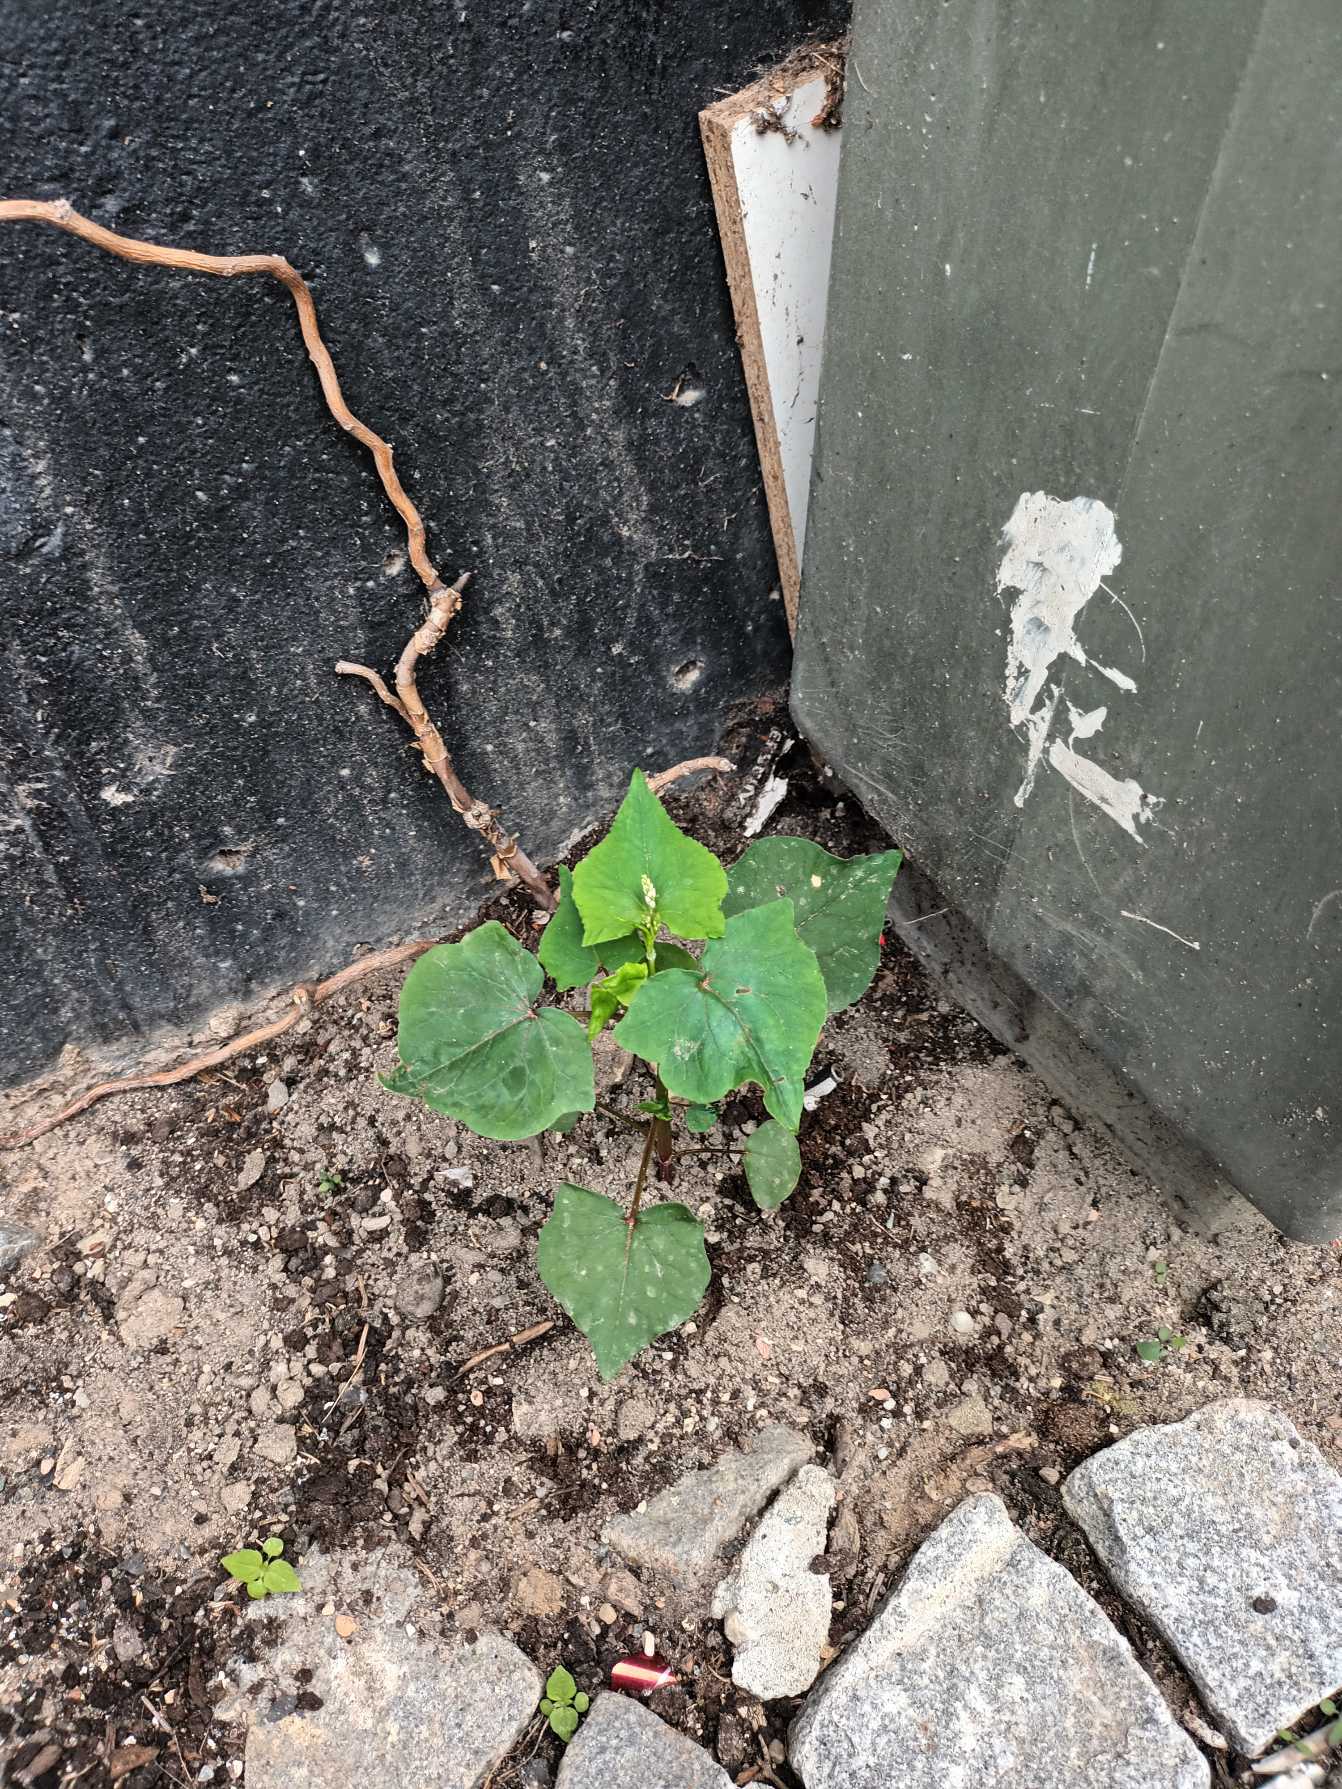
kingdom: Plantae
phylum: Tracheophyta
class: Magnoliopsida
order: Caryophyllales
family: Polygonaceae
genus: Fagopyrum
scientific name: Fagopyrum esculentum
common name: Almindelig boghvede
